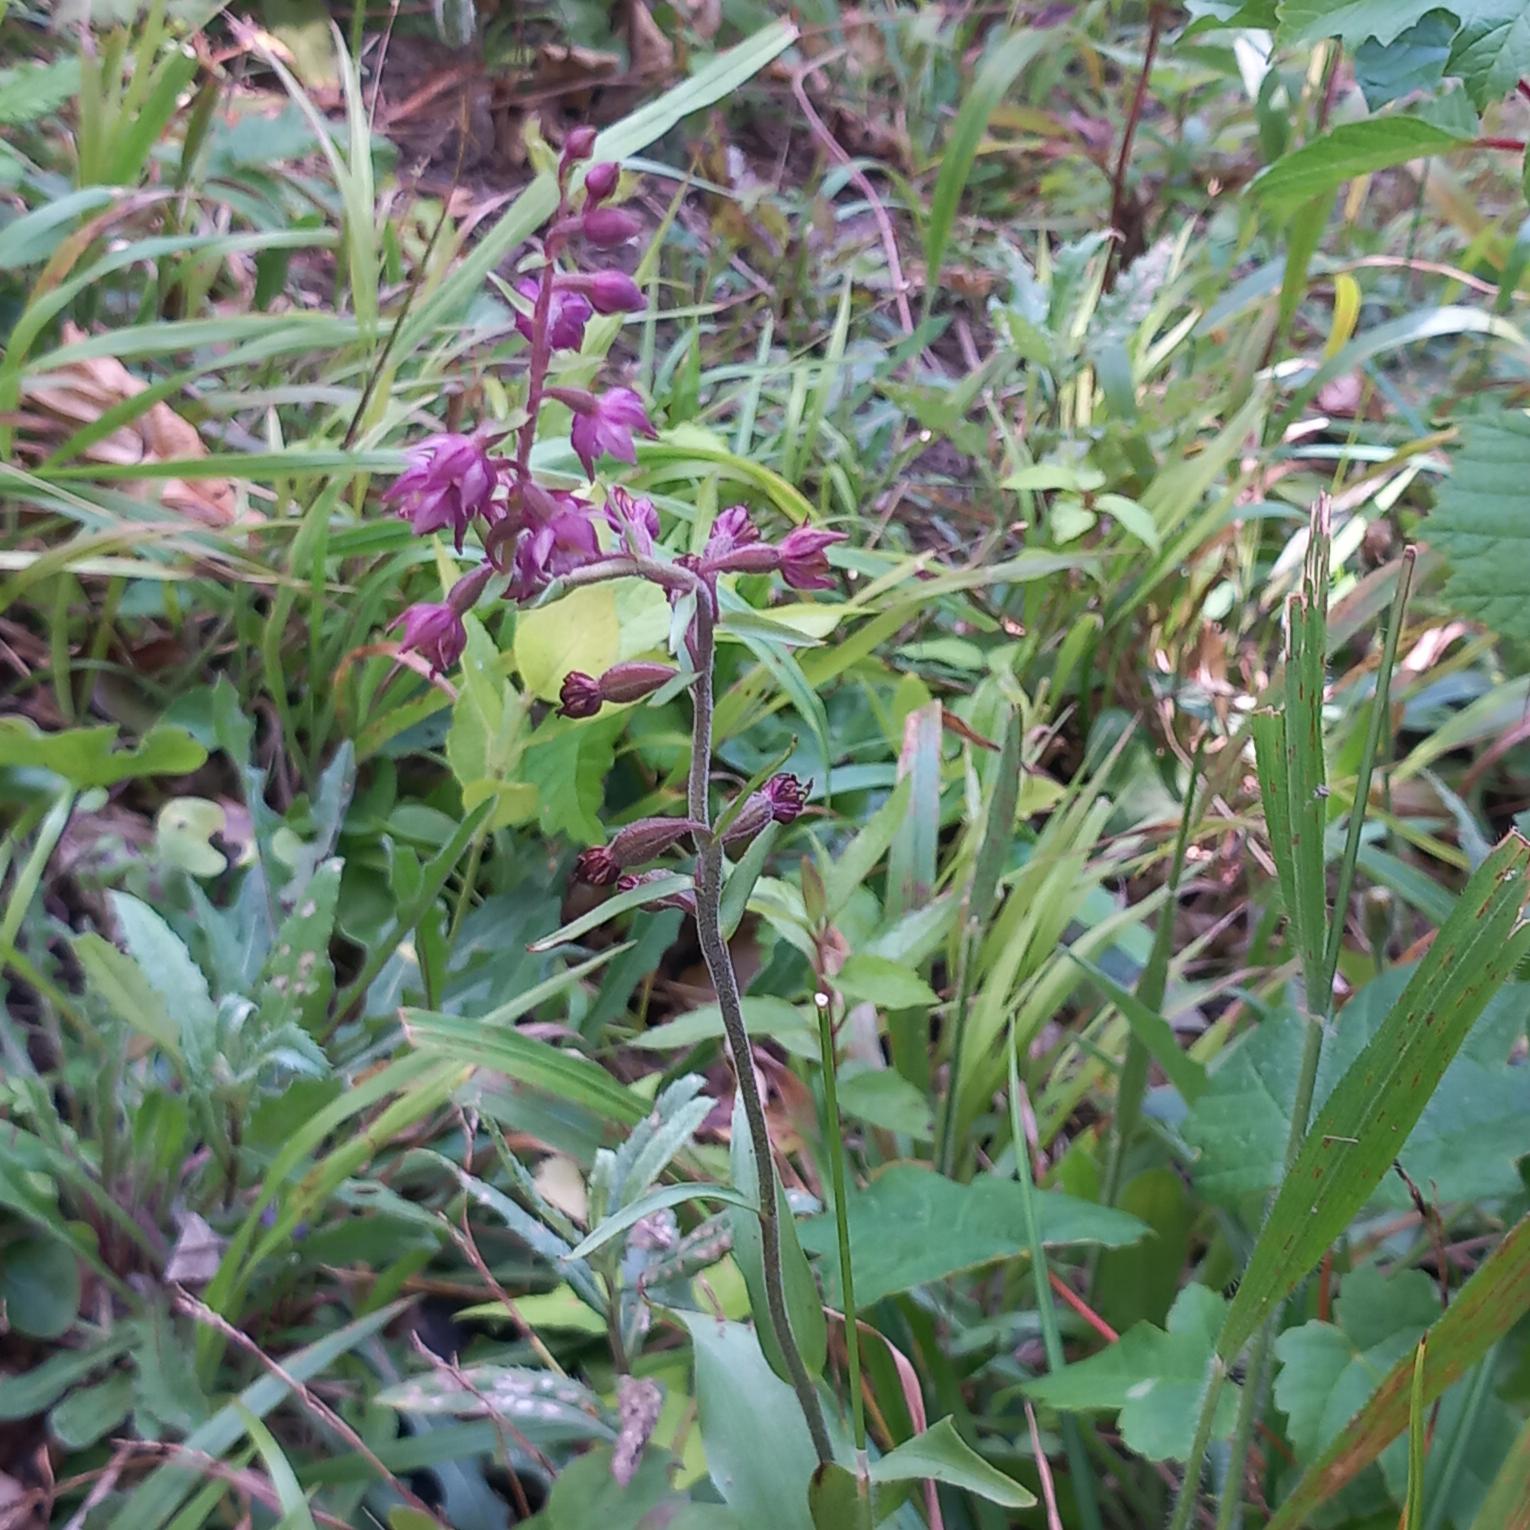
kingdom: Plantae
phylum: Tracheophyta
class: Liliopsida
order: Asparagales
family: Orchidaceae
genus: Epipactis
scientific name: Epipactis atrorubens
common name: Rød hullæbe
